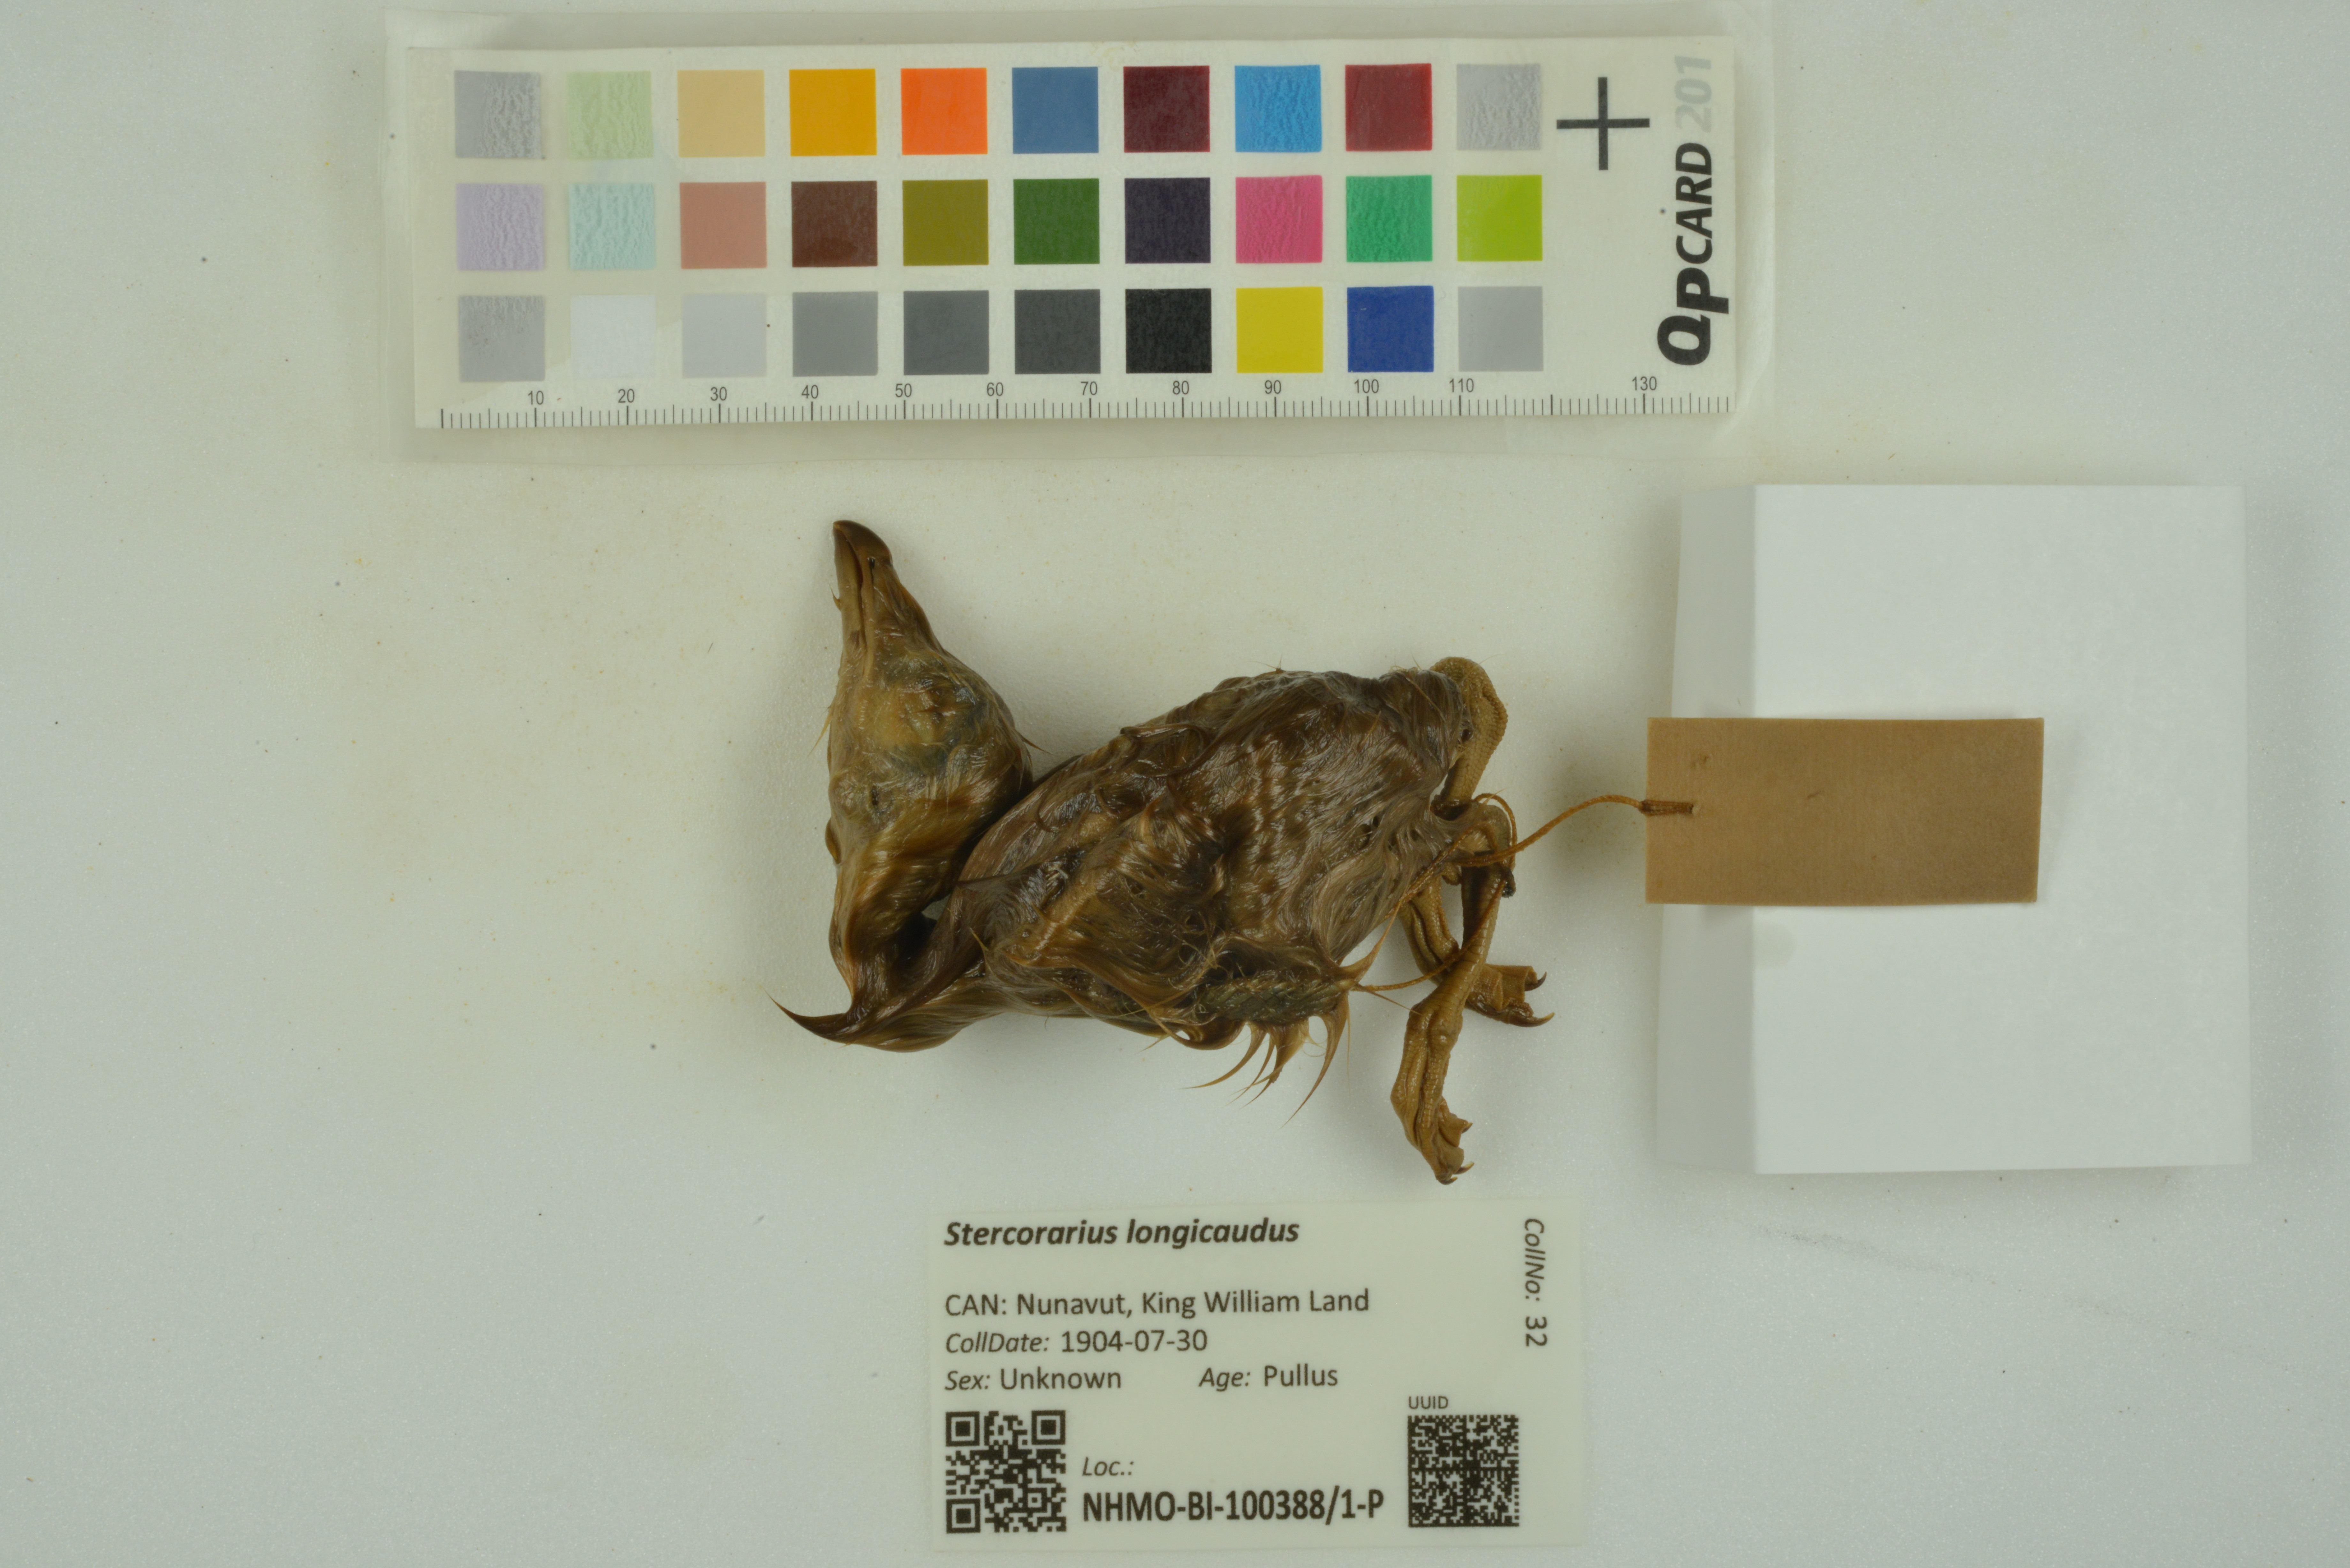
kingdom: Animalia
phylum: Chordata
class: Aves
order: Charadriiformes
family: Stercorariidae
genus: Stercorarius
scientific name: Stercorarius longicaudus
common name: Long-tailed jaeger
